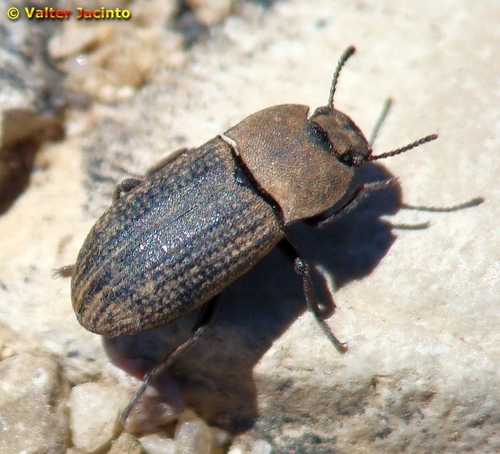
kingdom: Animalia
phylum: Arthropoda
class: Insecta
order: Coleoptera
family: Tenebrionidae
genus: Gonocephalum
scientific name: Gonocephalum granulatum
